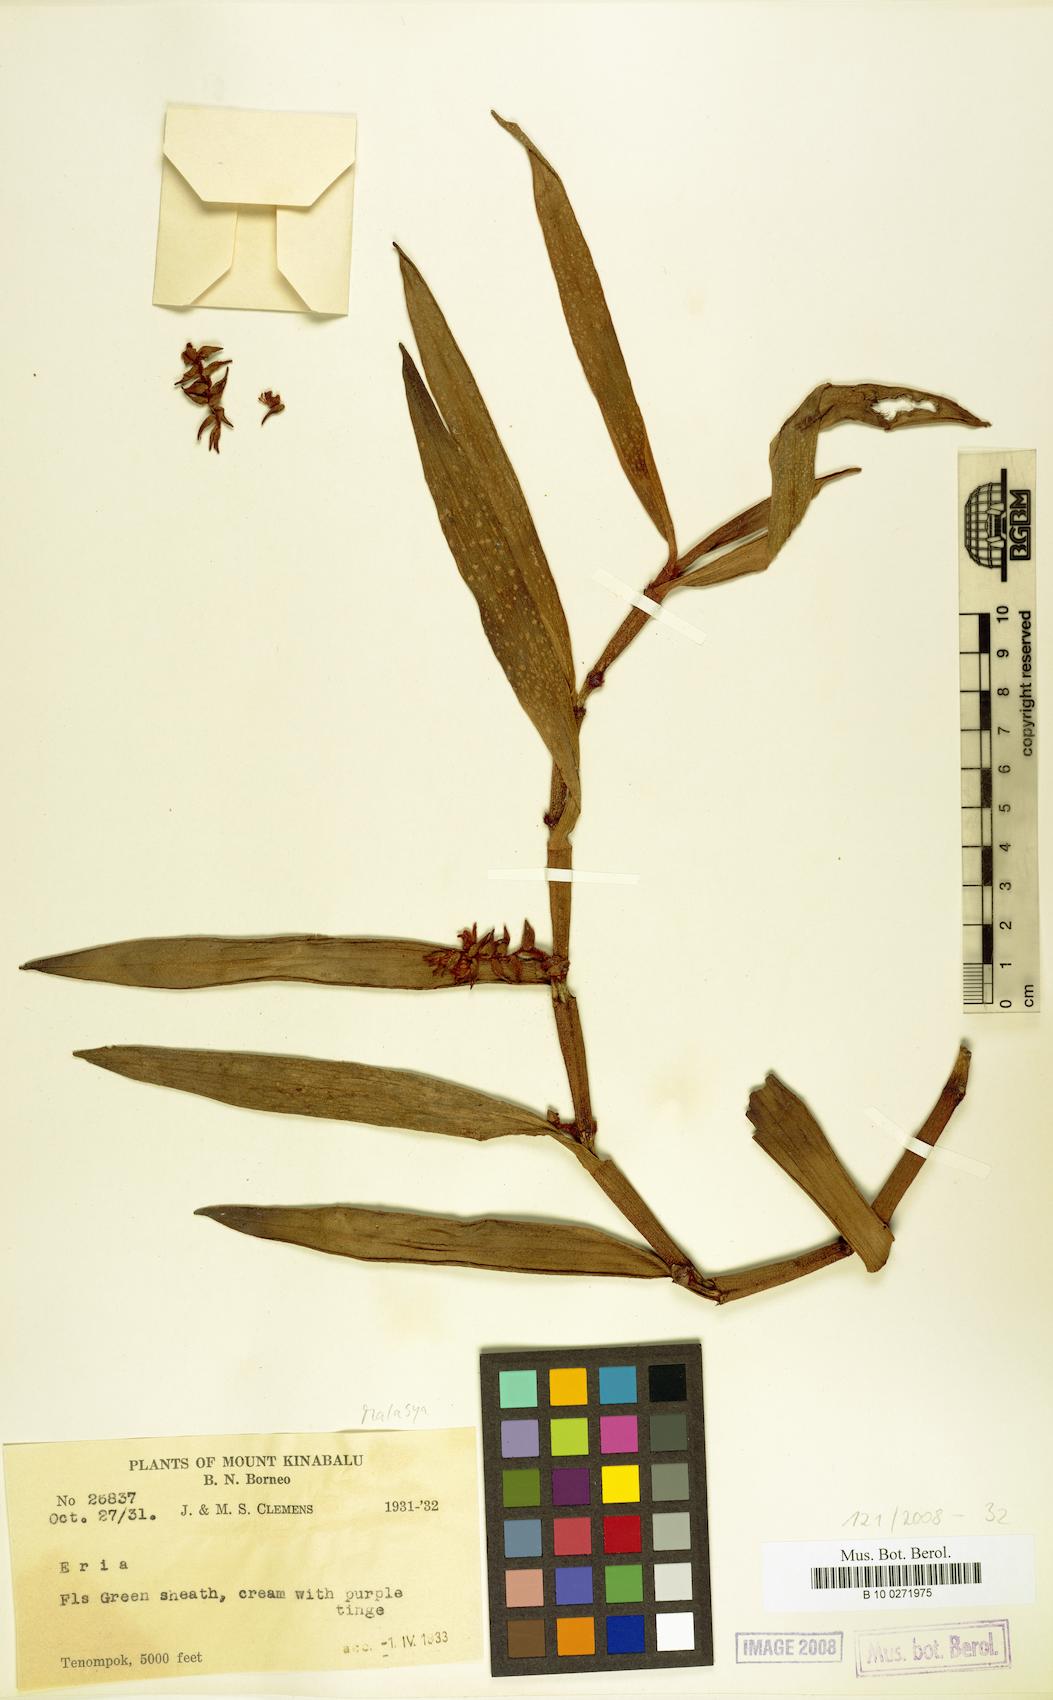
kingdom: Plantae
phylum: Tracheophyta
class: Liliopsida
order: Asparagales
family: Orchidaceae
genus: Eria
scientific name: Eria
